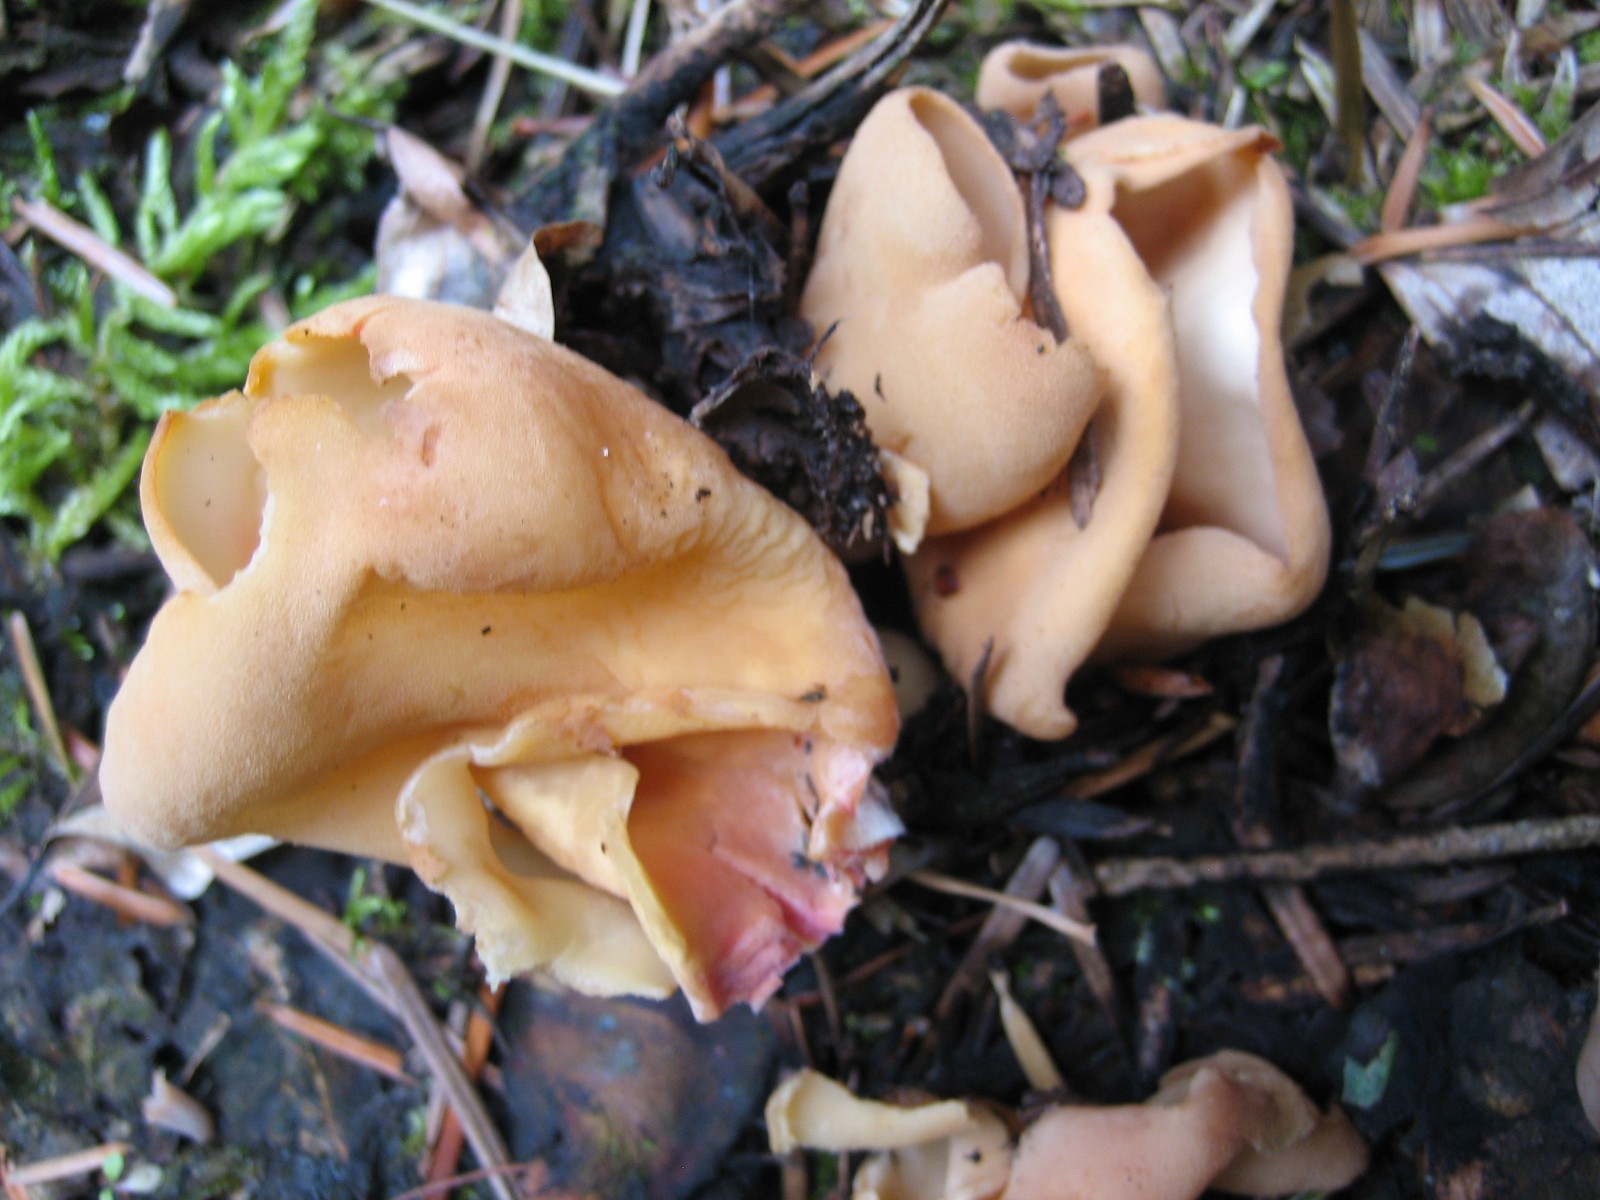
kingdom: Fungi
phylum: Ascomycota
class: Pezizomycetes
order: Pezizales
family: Otideaceae
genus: Otidea
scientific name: Otidea onotica
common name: æsel-ørebæger
